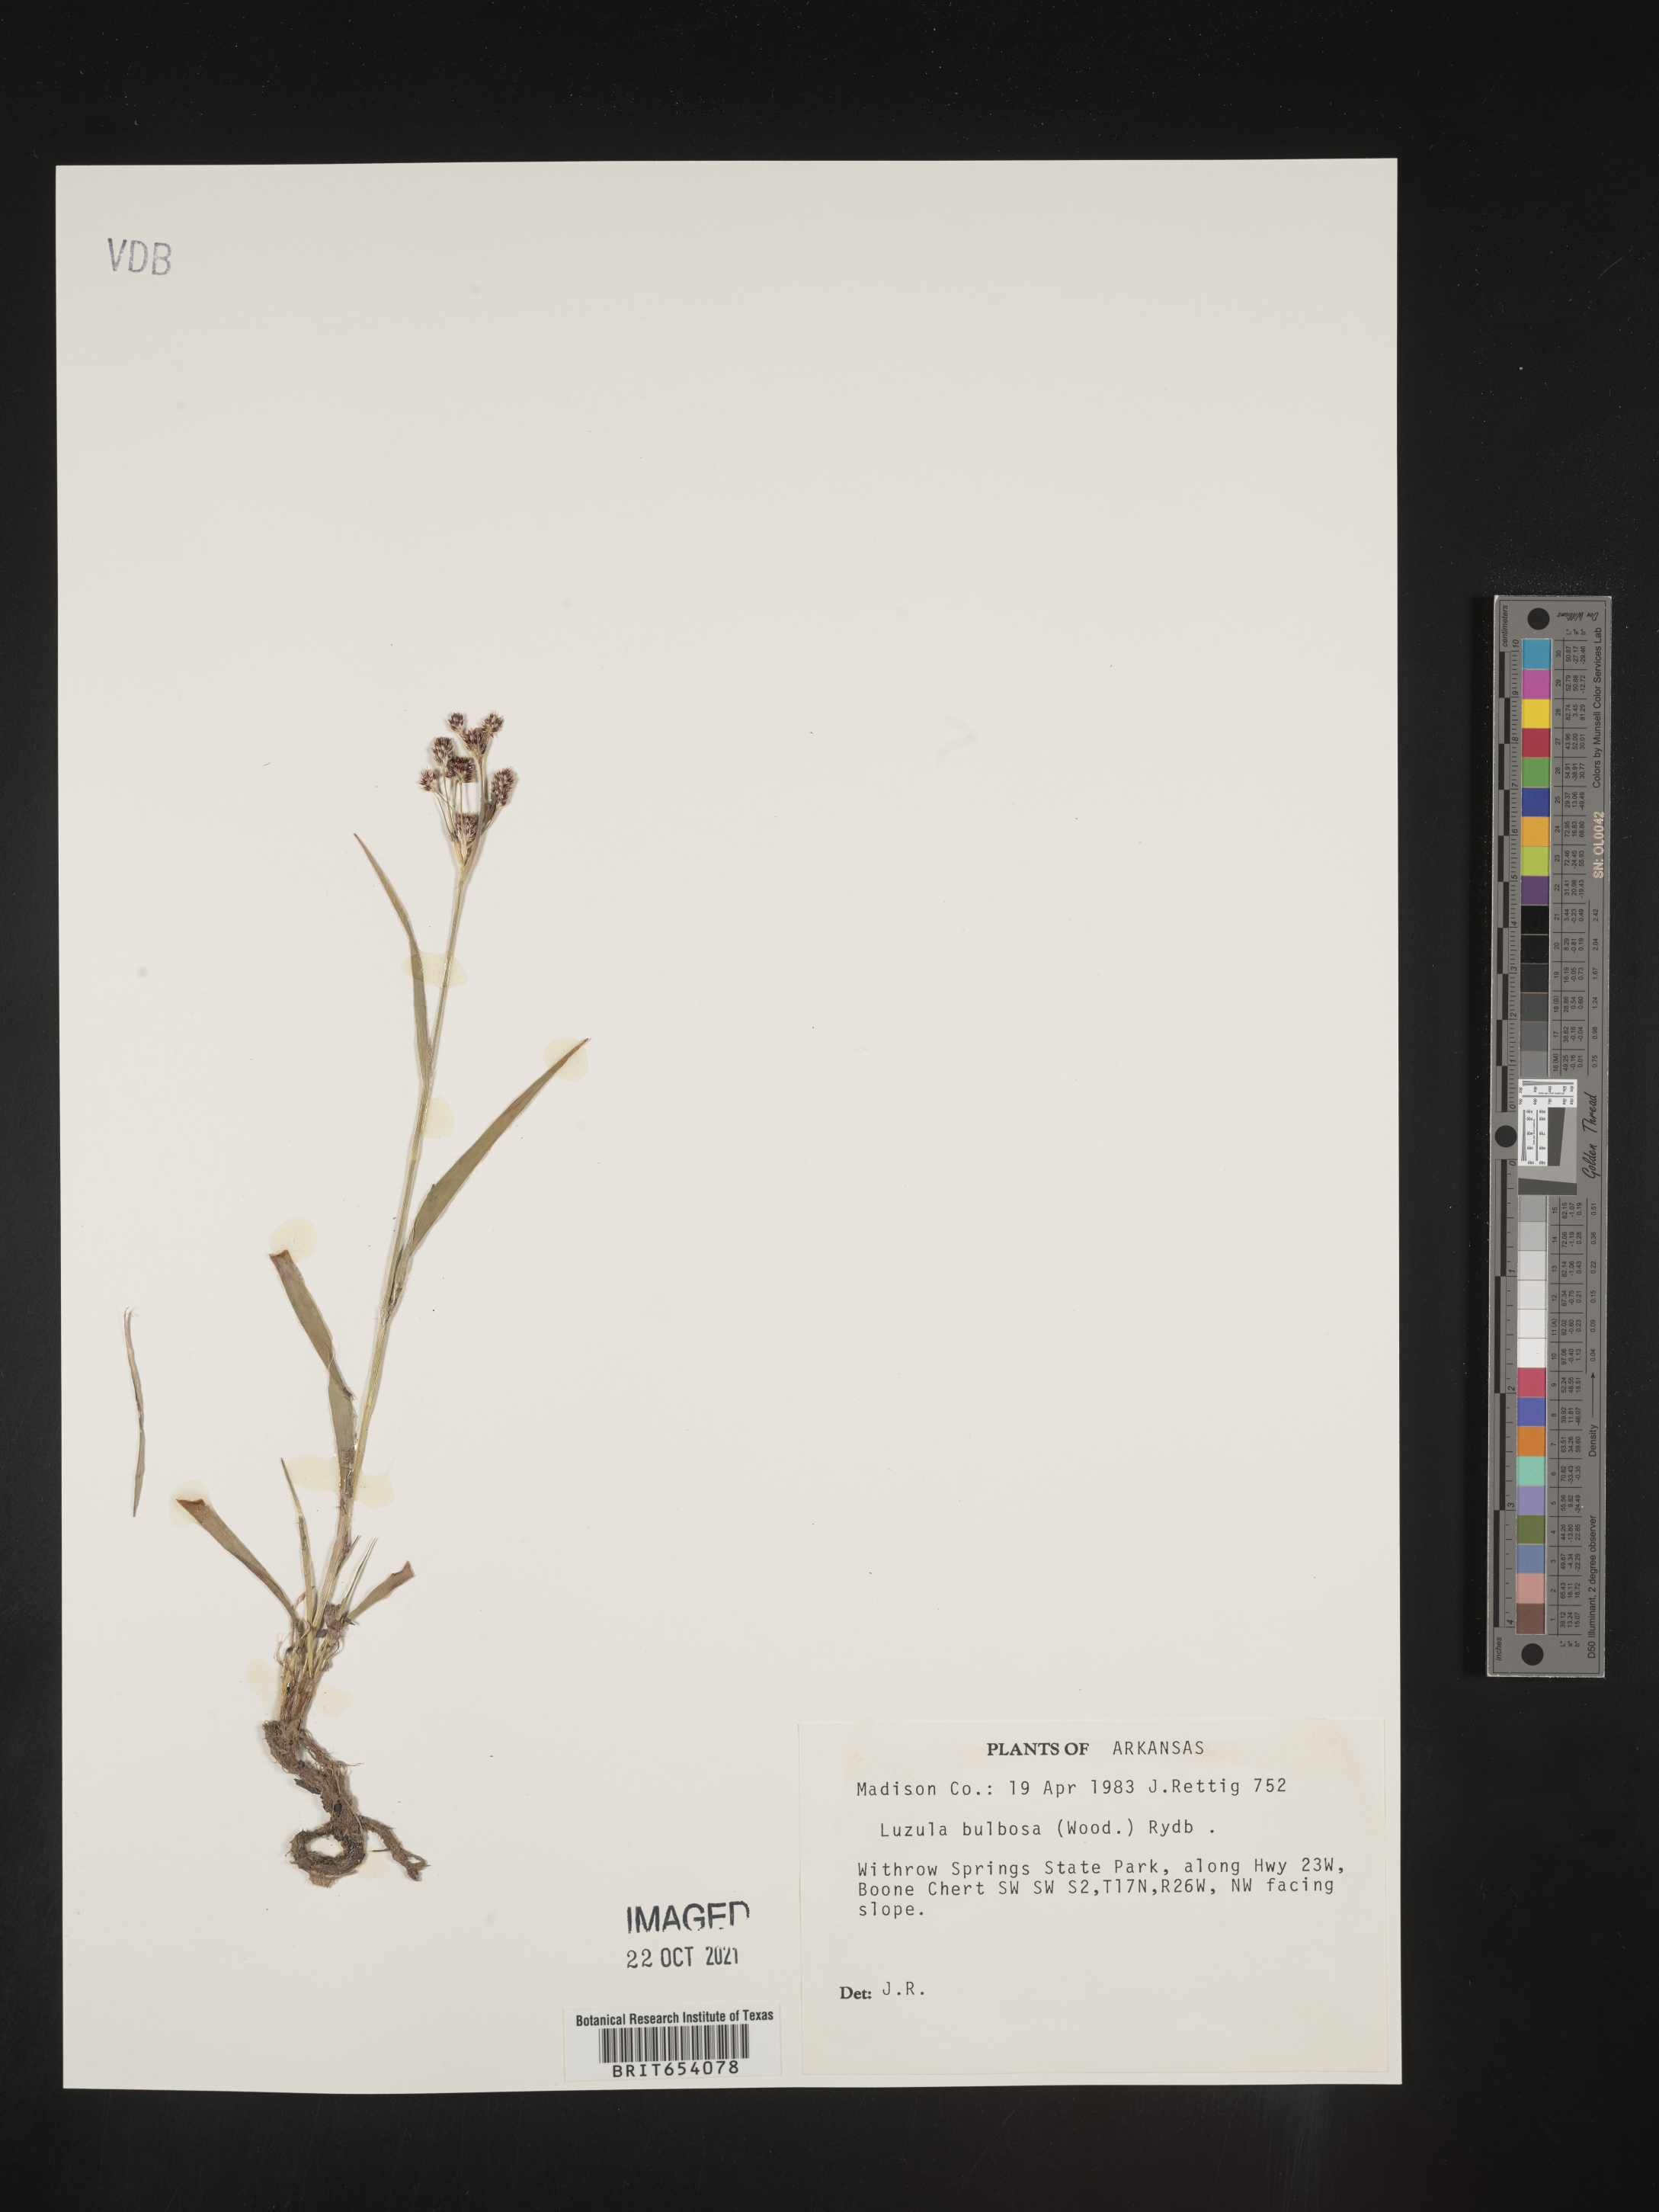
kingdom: Plantae
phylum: Tracheophyta
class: Liliopsida
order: Poales
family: Juncaceae
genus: Luzula
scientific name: Luzula bulbosa
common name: Bulbous woodrush
